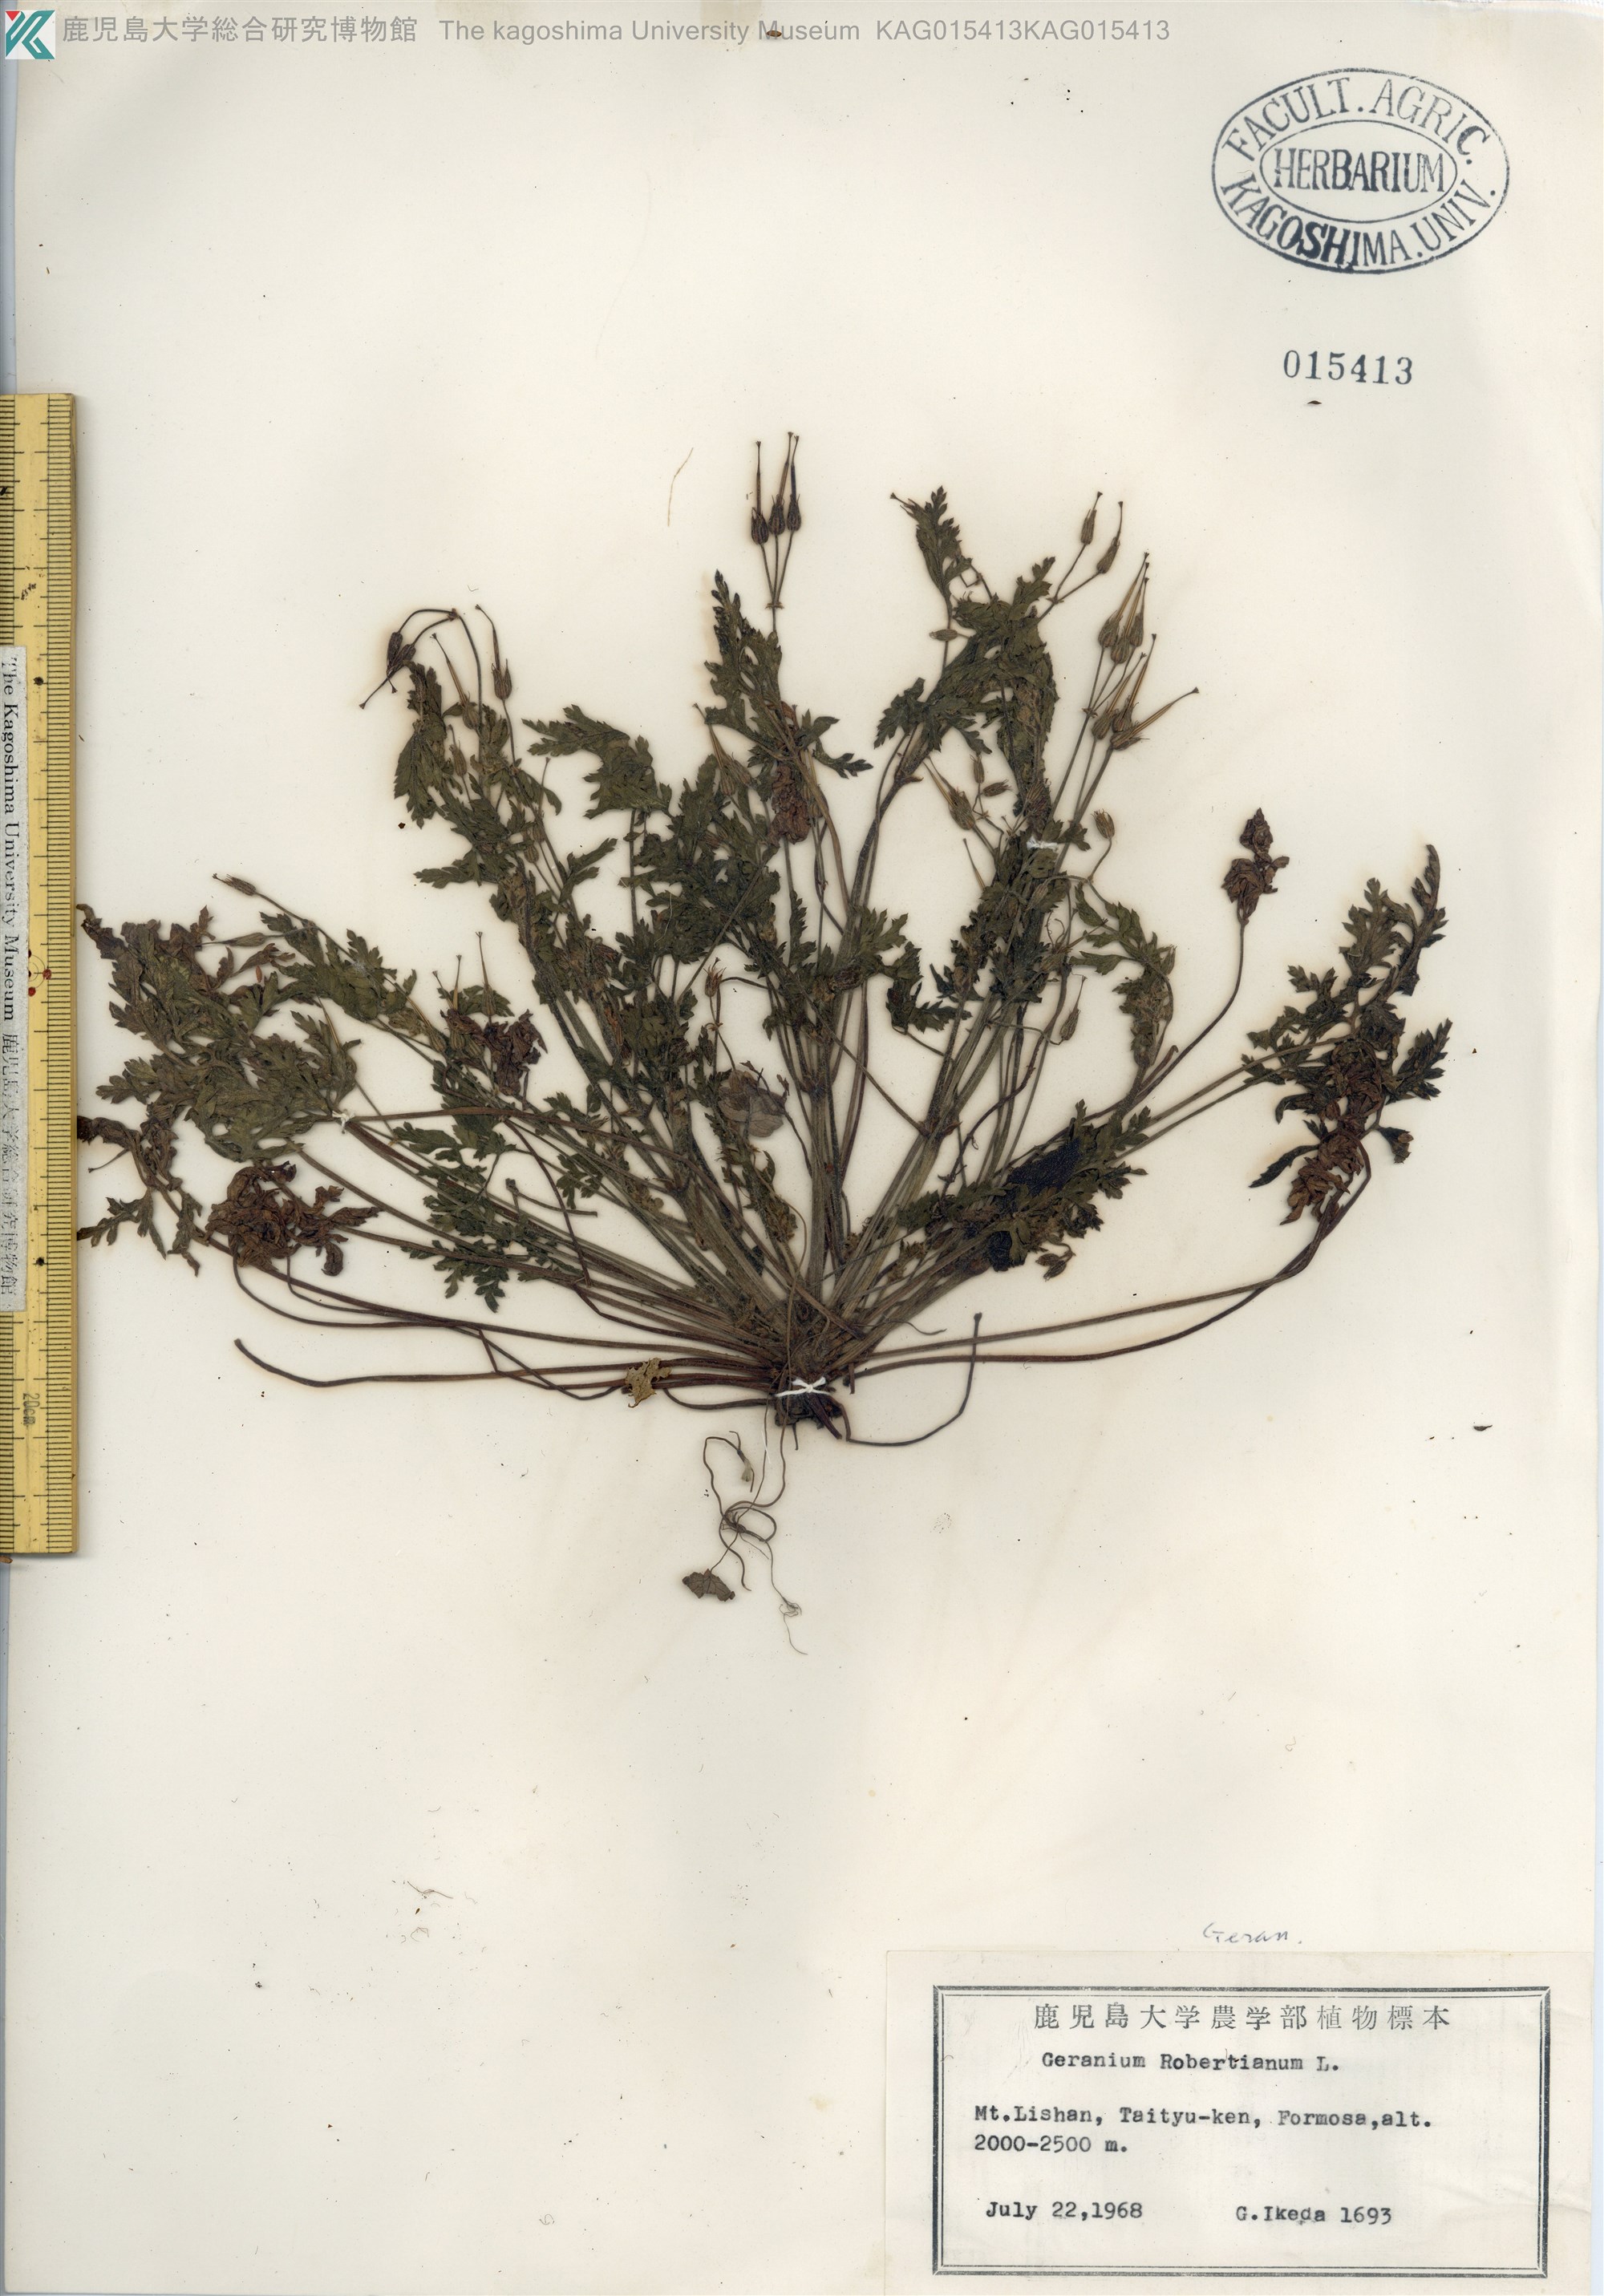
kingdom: Plantae
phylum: Tracheophyta
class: Magnoliopsida
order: Geraniales
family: Geraniaceae
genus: Geranium
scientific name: Geranium robertianum
